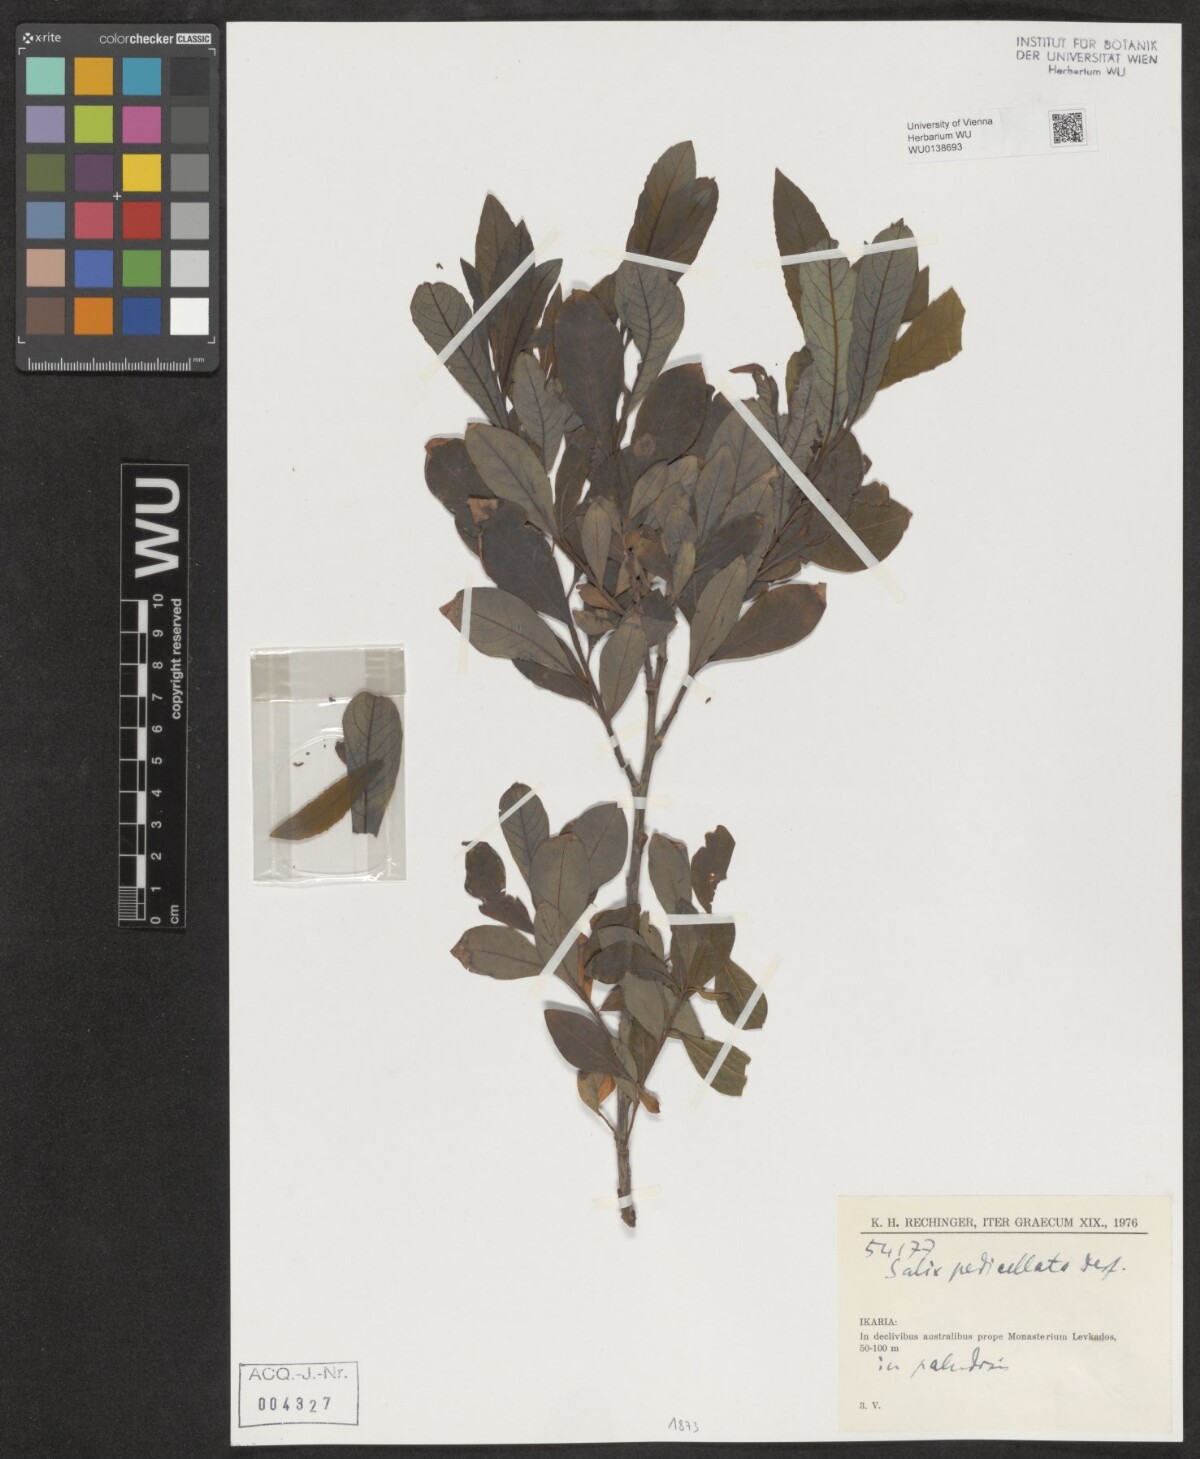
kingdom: Plantae
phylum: Tracheophyta
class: Magnoliopsida
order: Malpighiales
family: Salicaceae
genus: Salix
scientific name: Salix pedicellata
